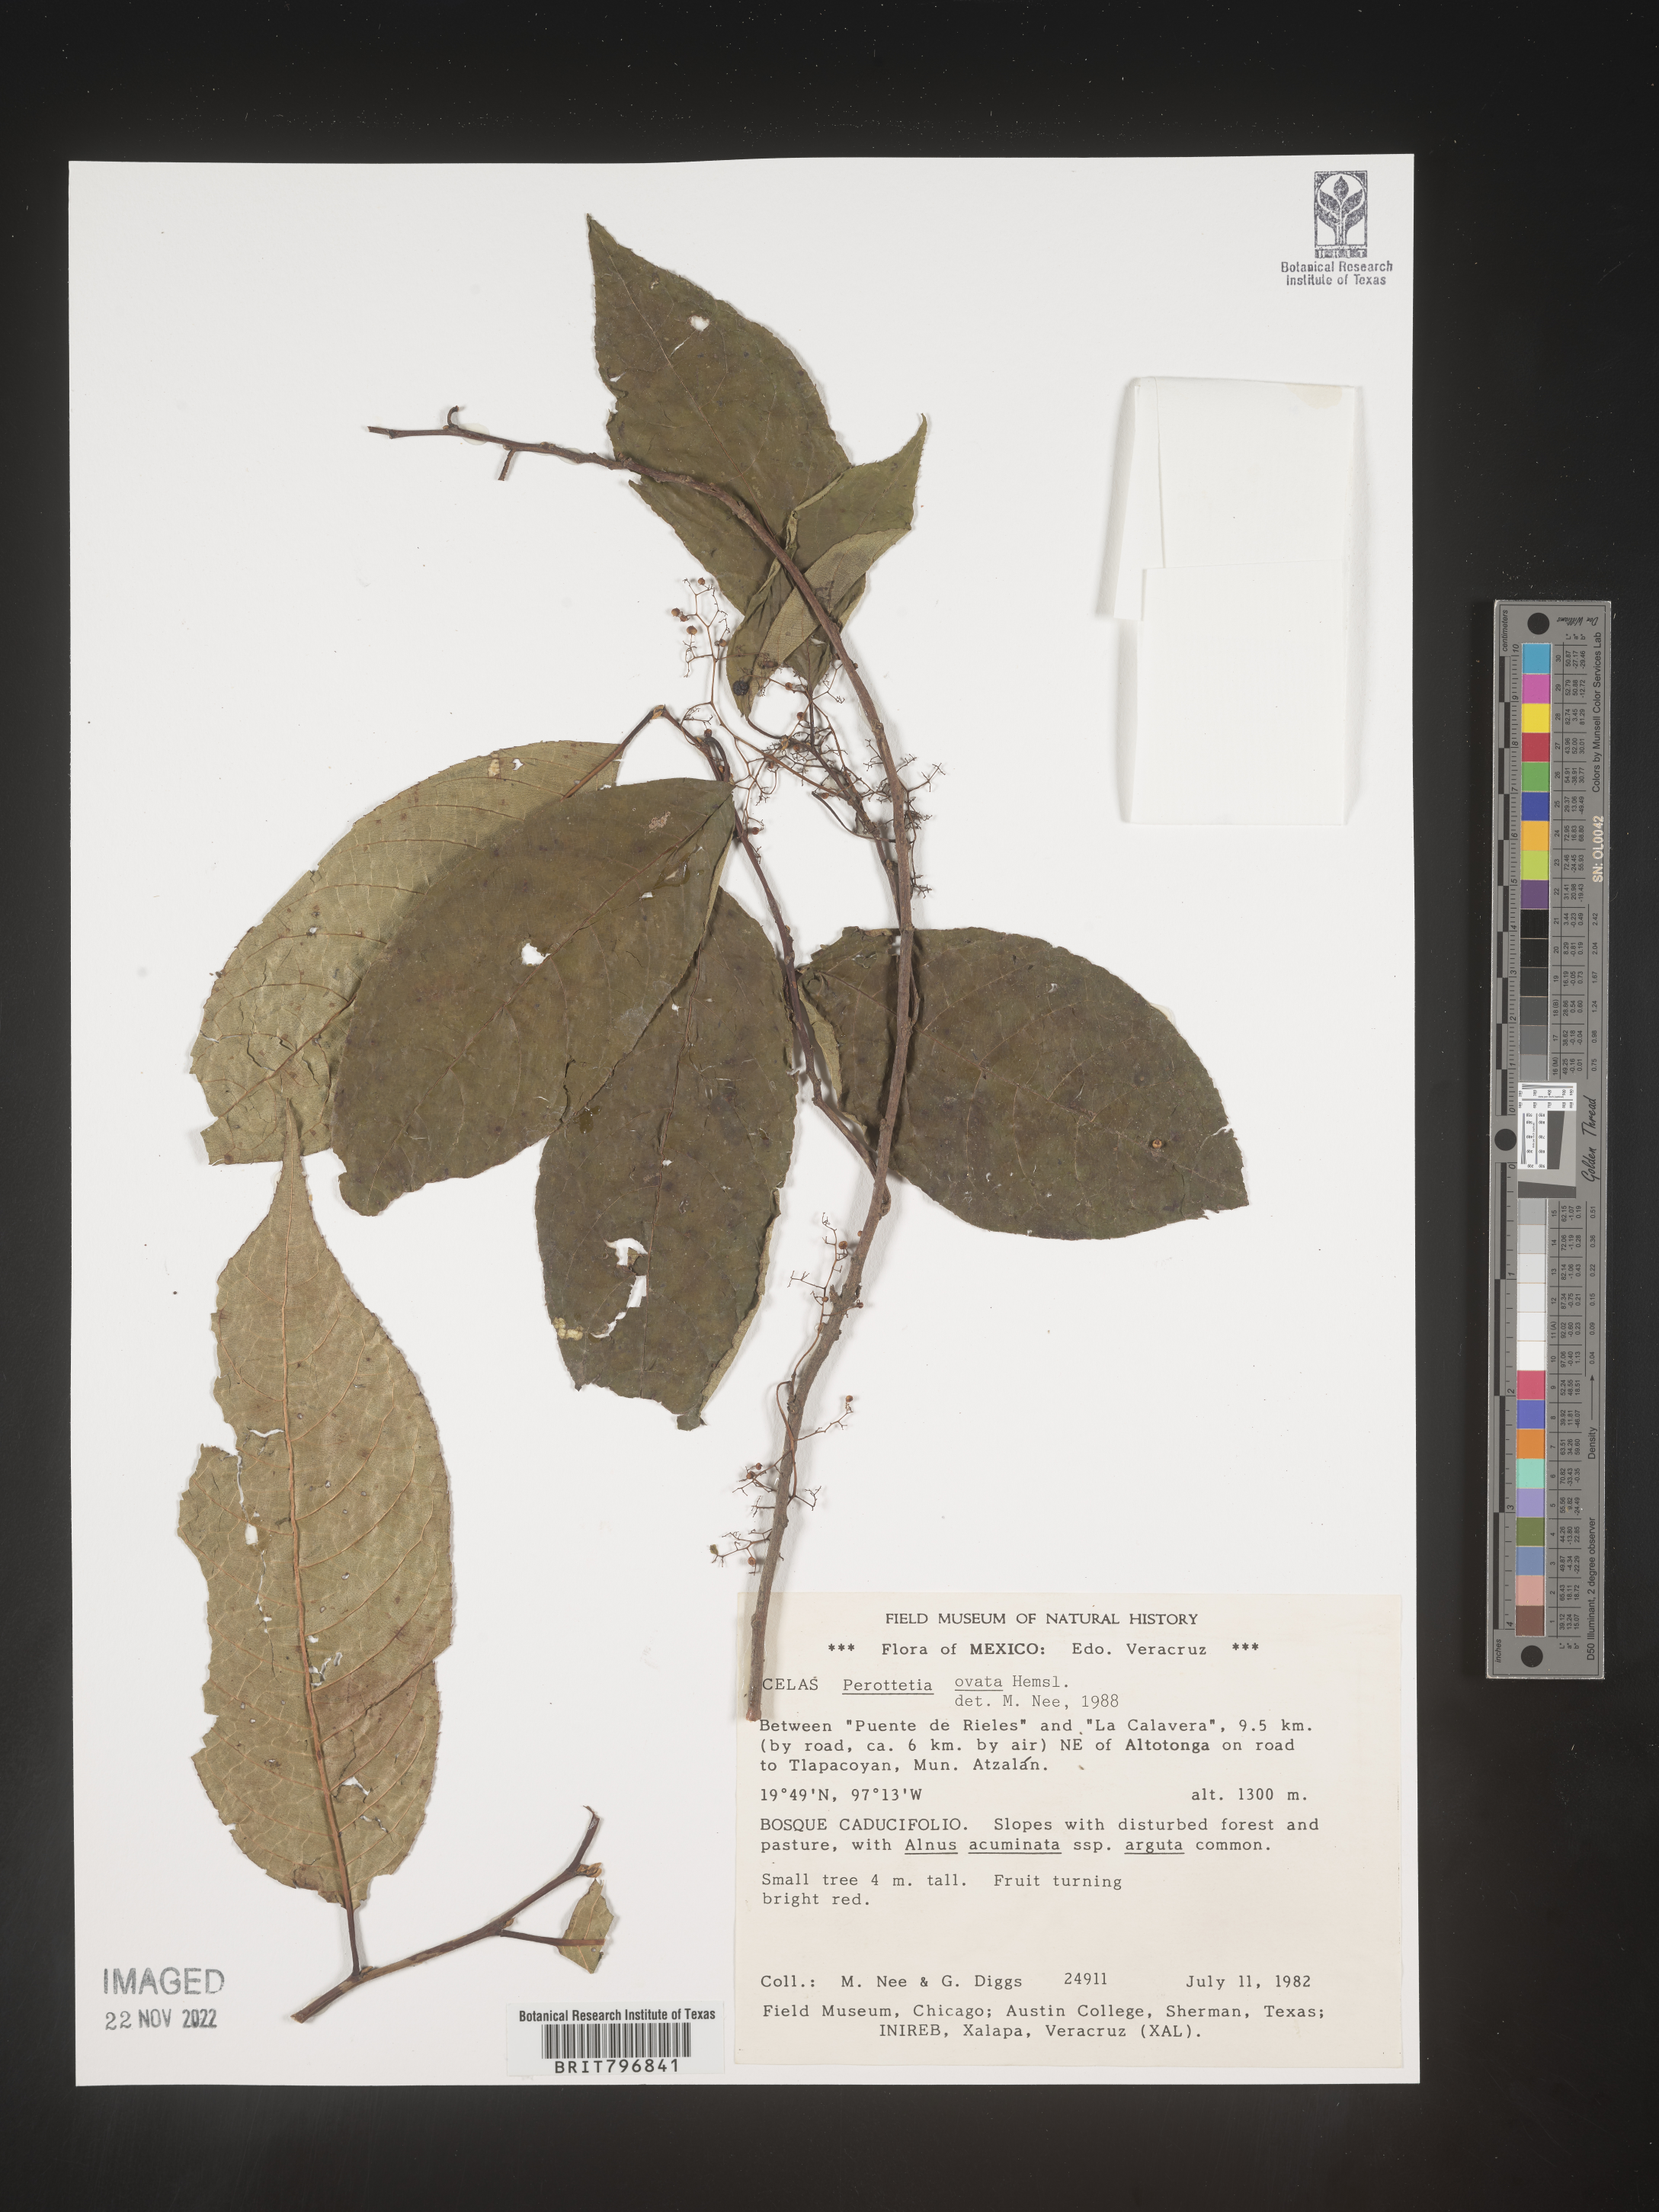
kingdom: Plantae
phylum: Tracheophyta
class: Magnoliopsida
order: Huerteales
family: Dipentodontaceae
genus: Perrottetia
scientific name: Perrottetia
